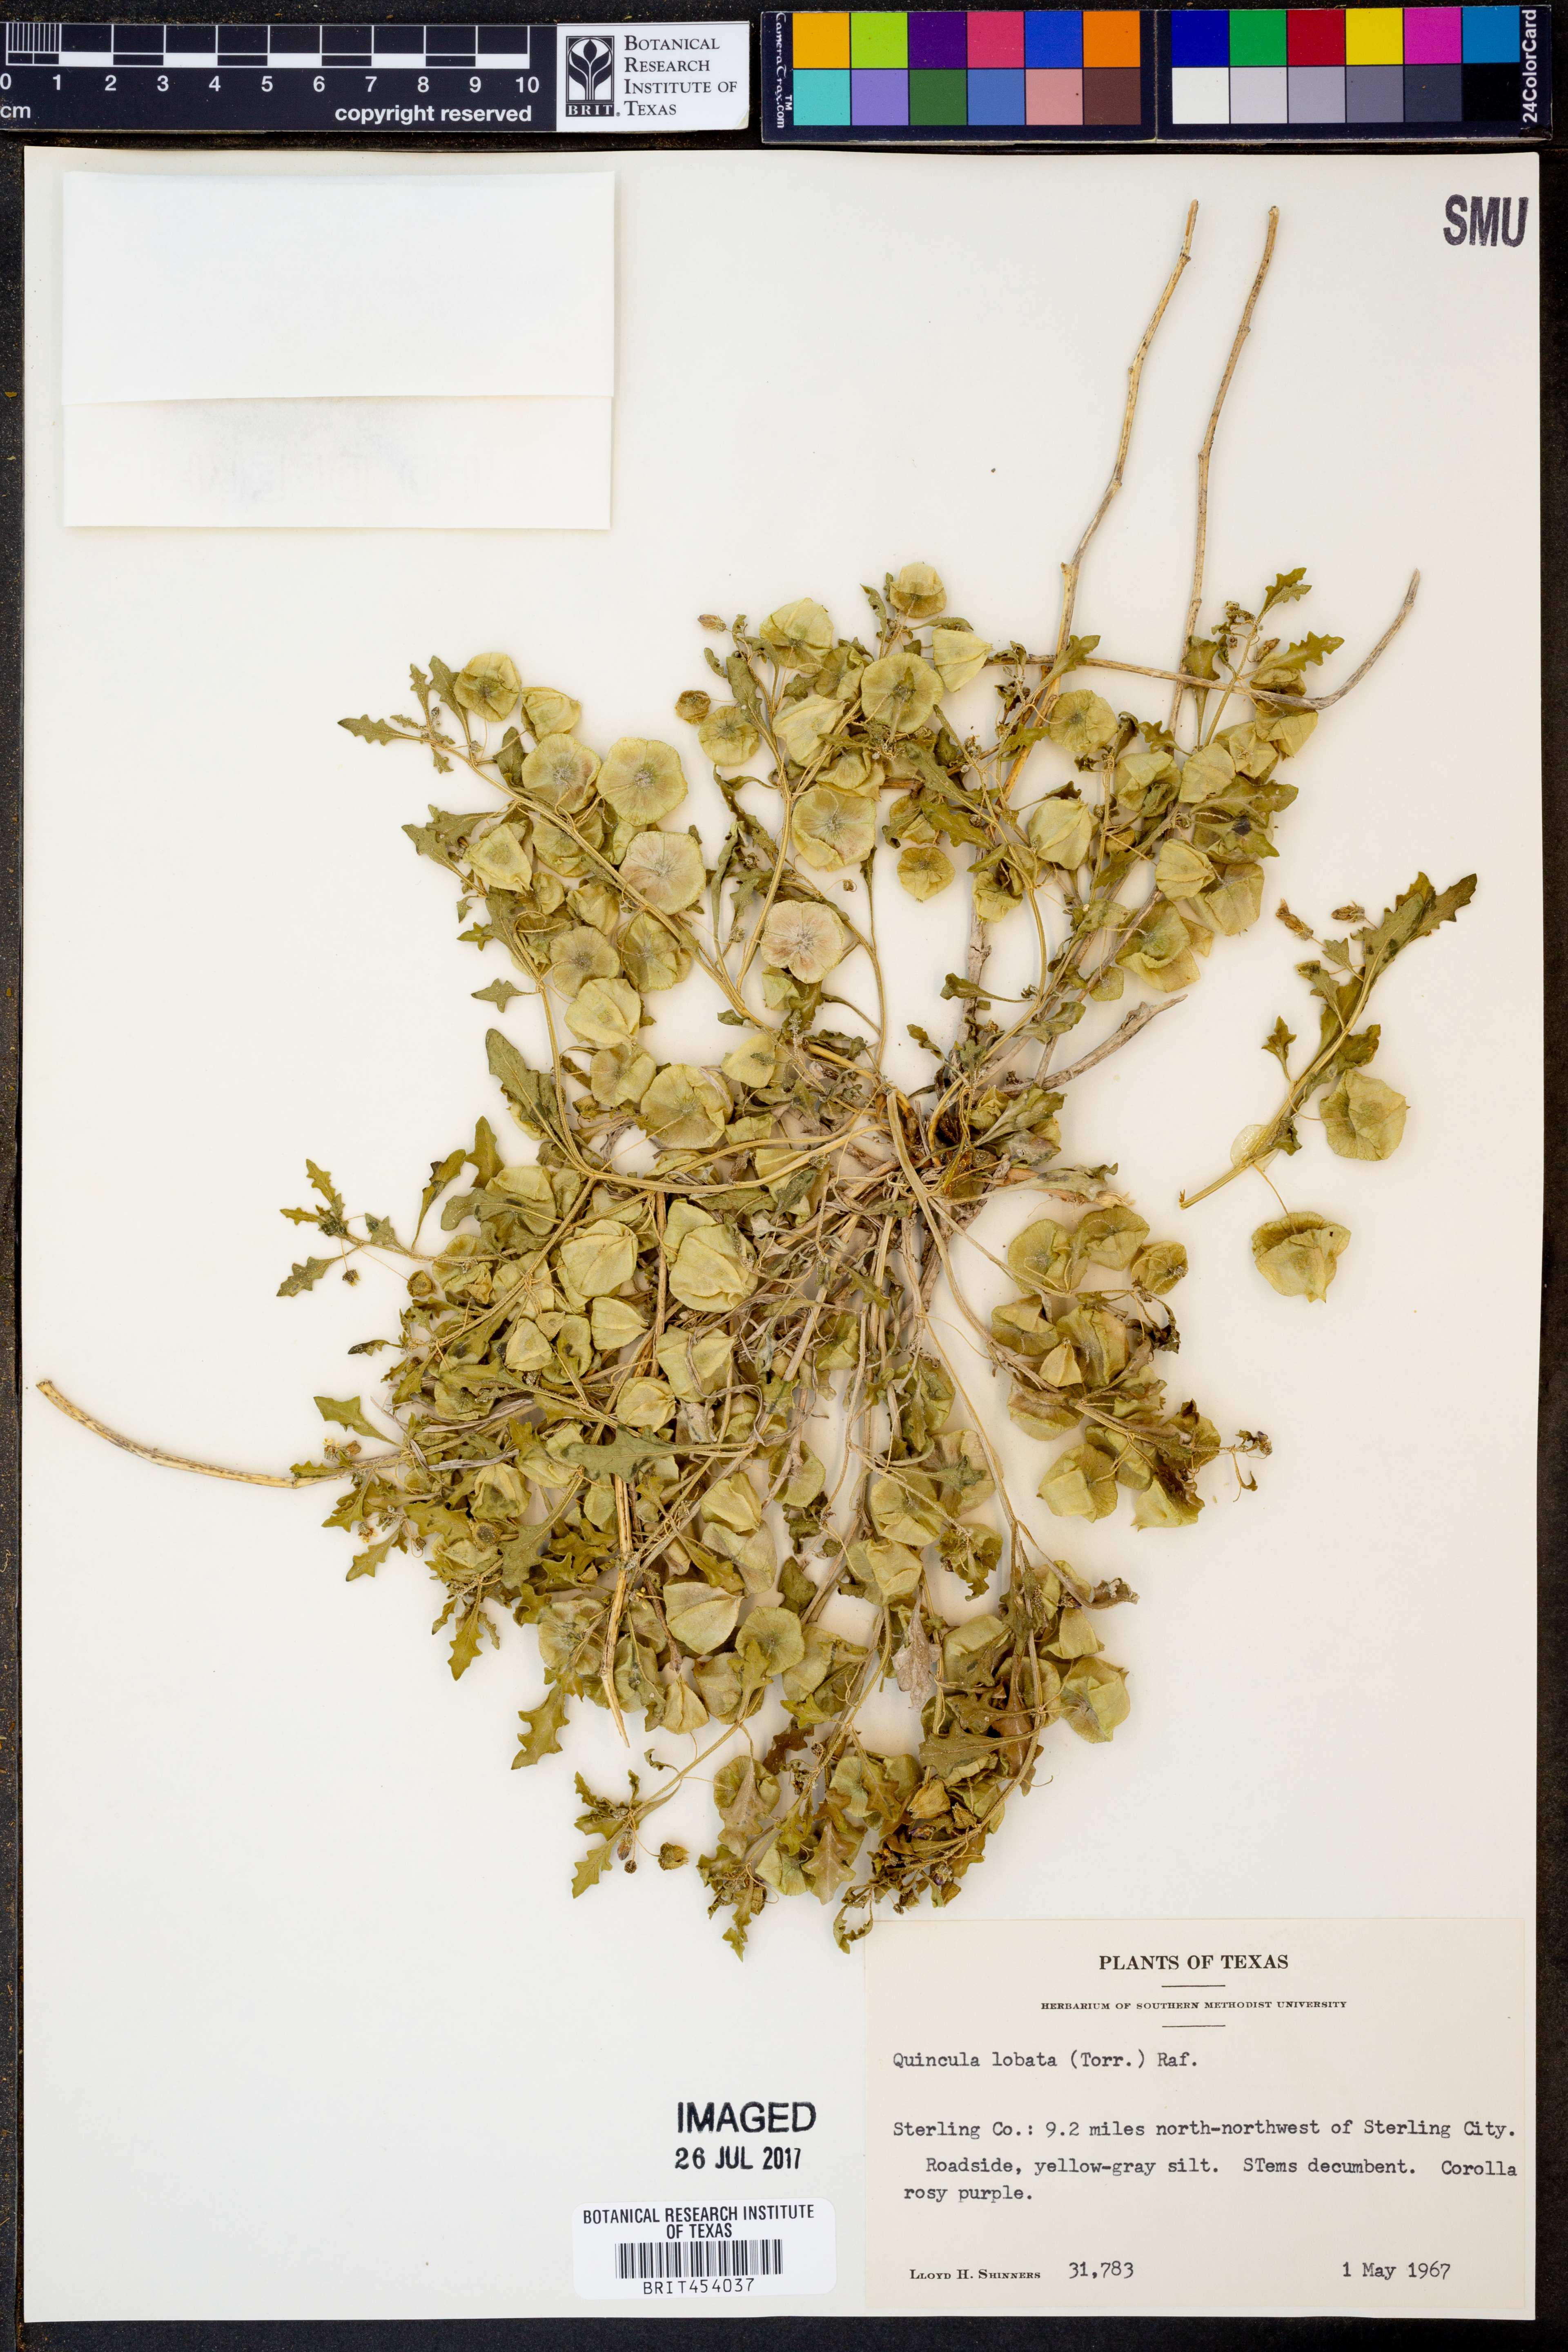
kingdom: Plantae
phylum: Tracheophyta
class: Magnoliopsida
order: Solanales
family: Solanaceae
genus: Quincula
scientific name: Quincula lobata
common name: Purple-ground-cherry
